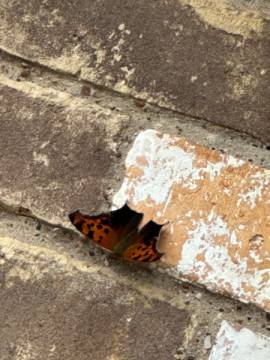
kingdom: Animalia
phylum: Arthropoda
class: Insecta
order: Lepidoptera
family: Nymphalidae
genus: Polygonia
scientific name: Polygonia interrogationis
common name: Question Mark
